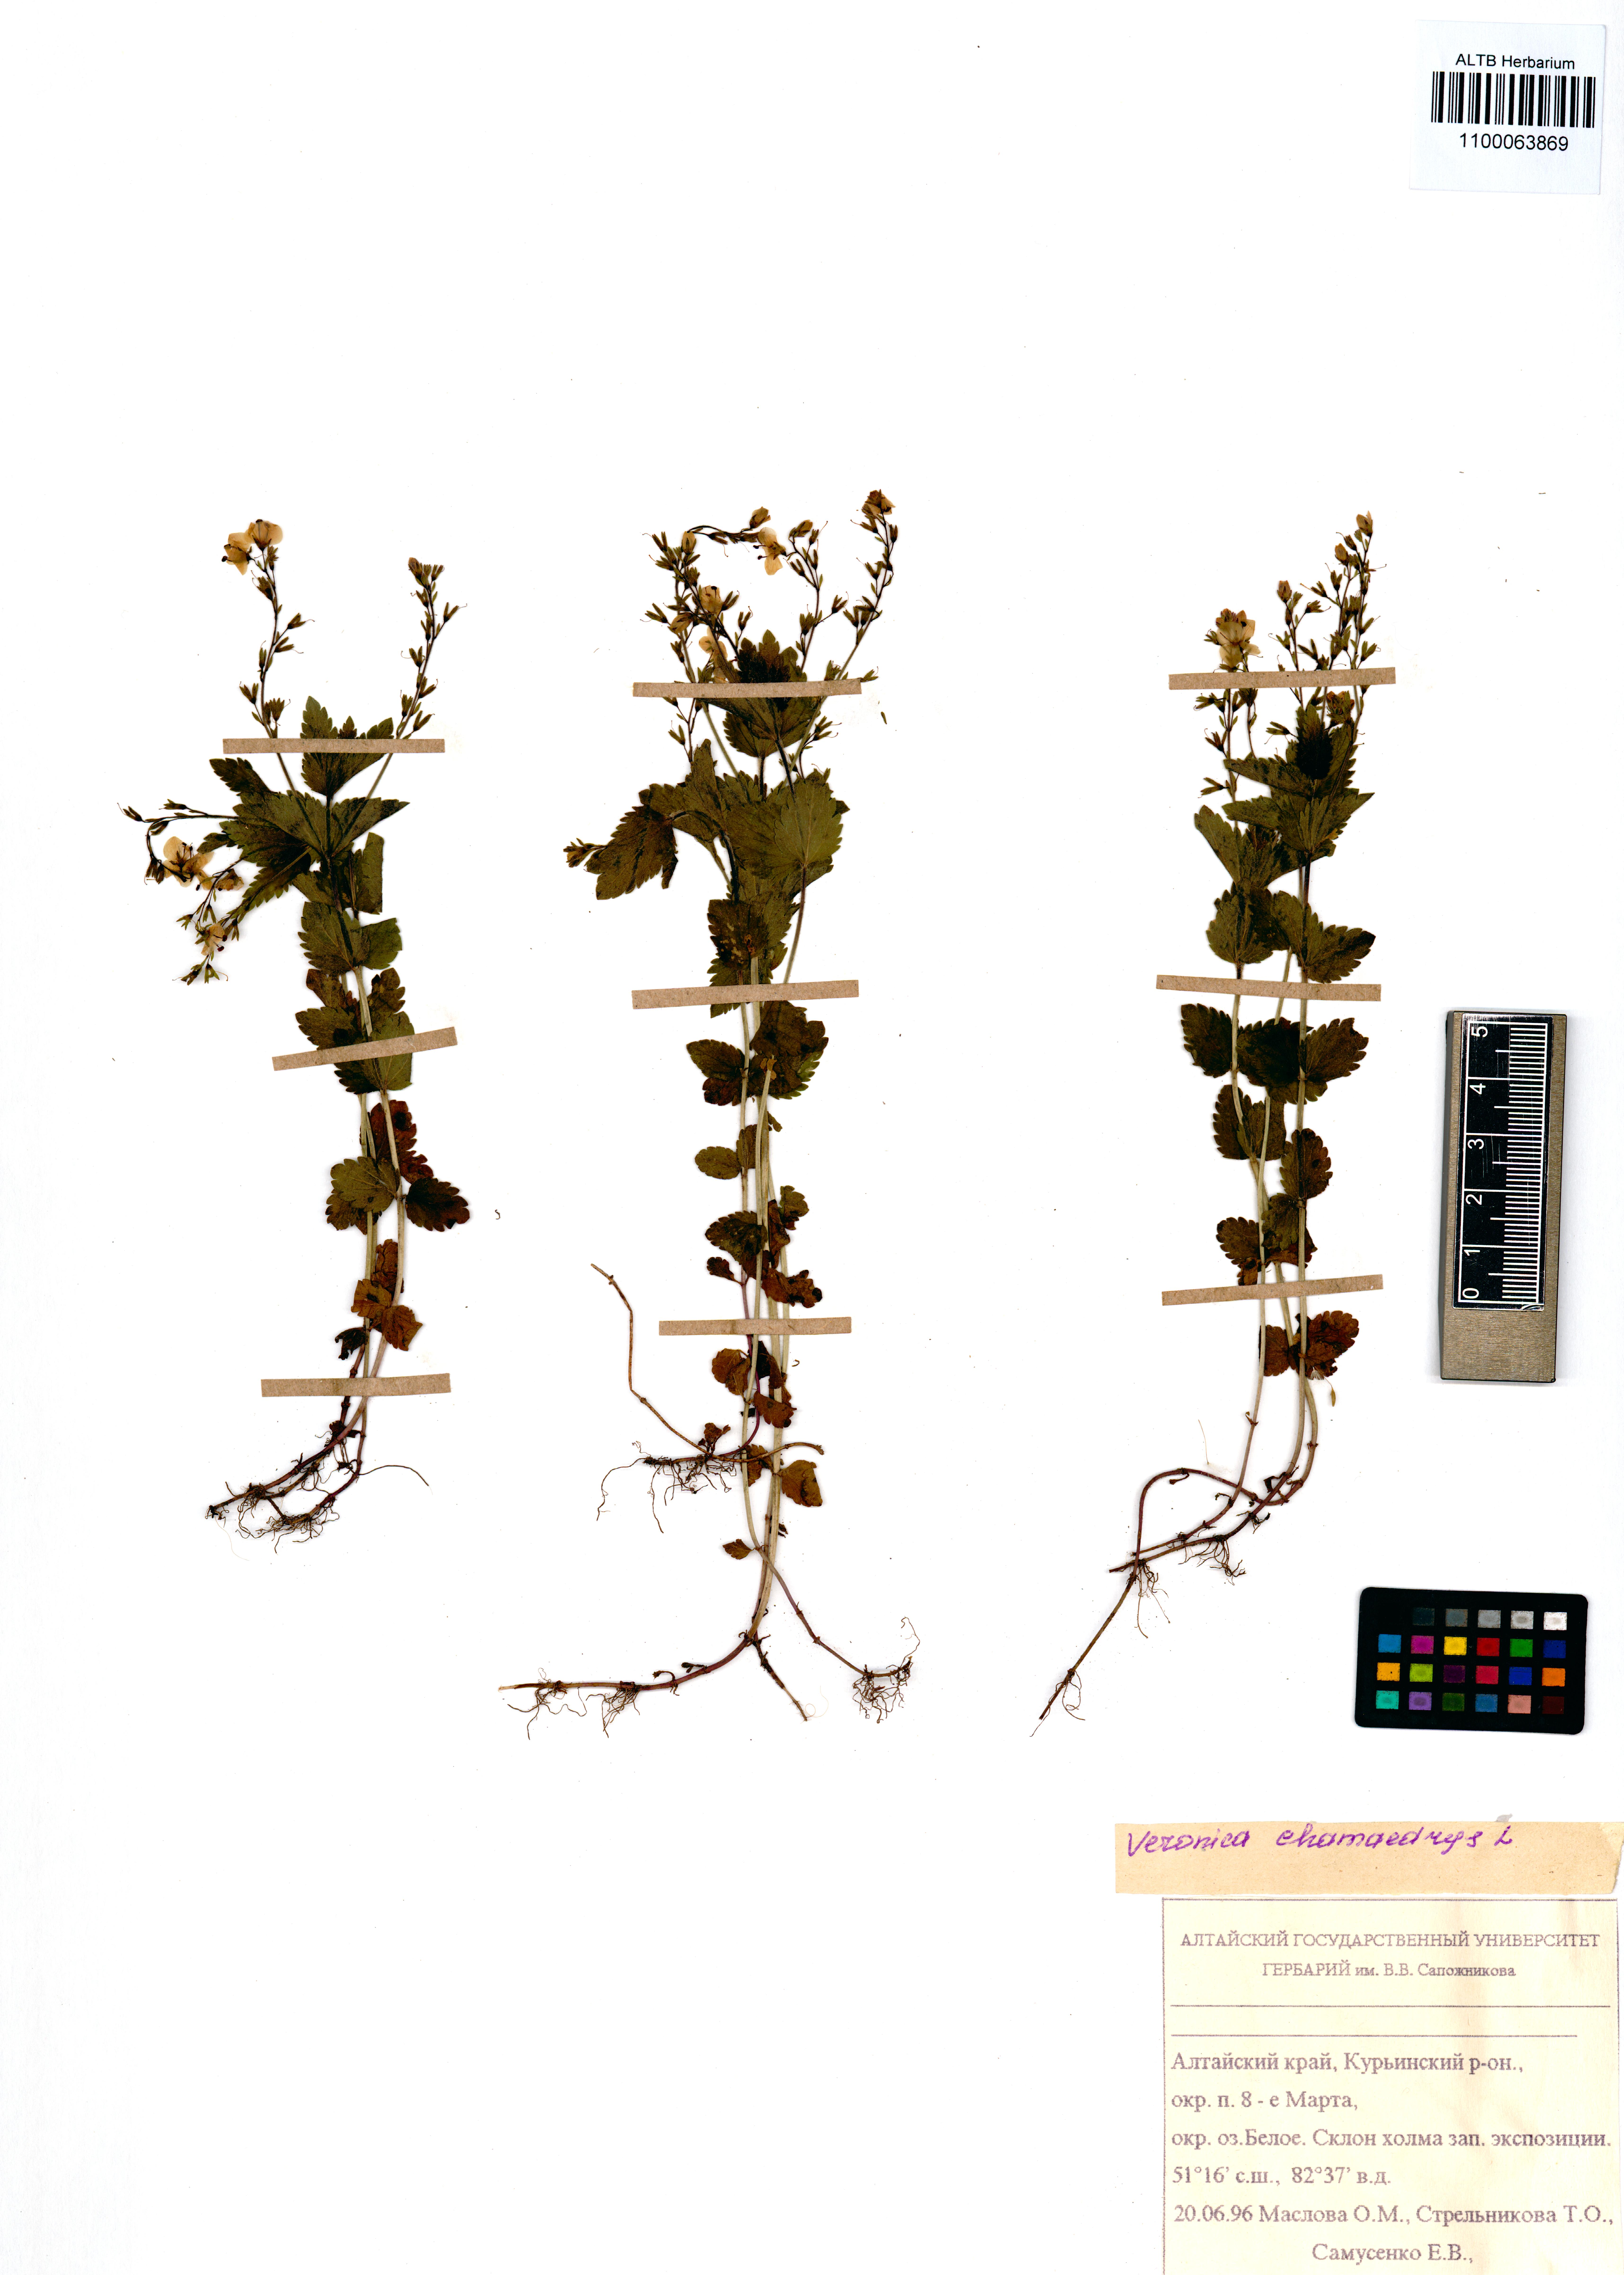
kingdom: Plantae
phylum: Tracheophyta
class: Magnoliopsida
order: Lamiales
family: Plantaginaceae
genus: Veronica
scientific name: Veronica chamaedrys
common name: Germander speedwell
